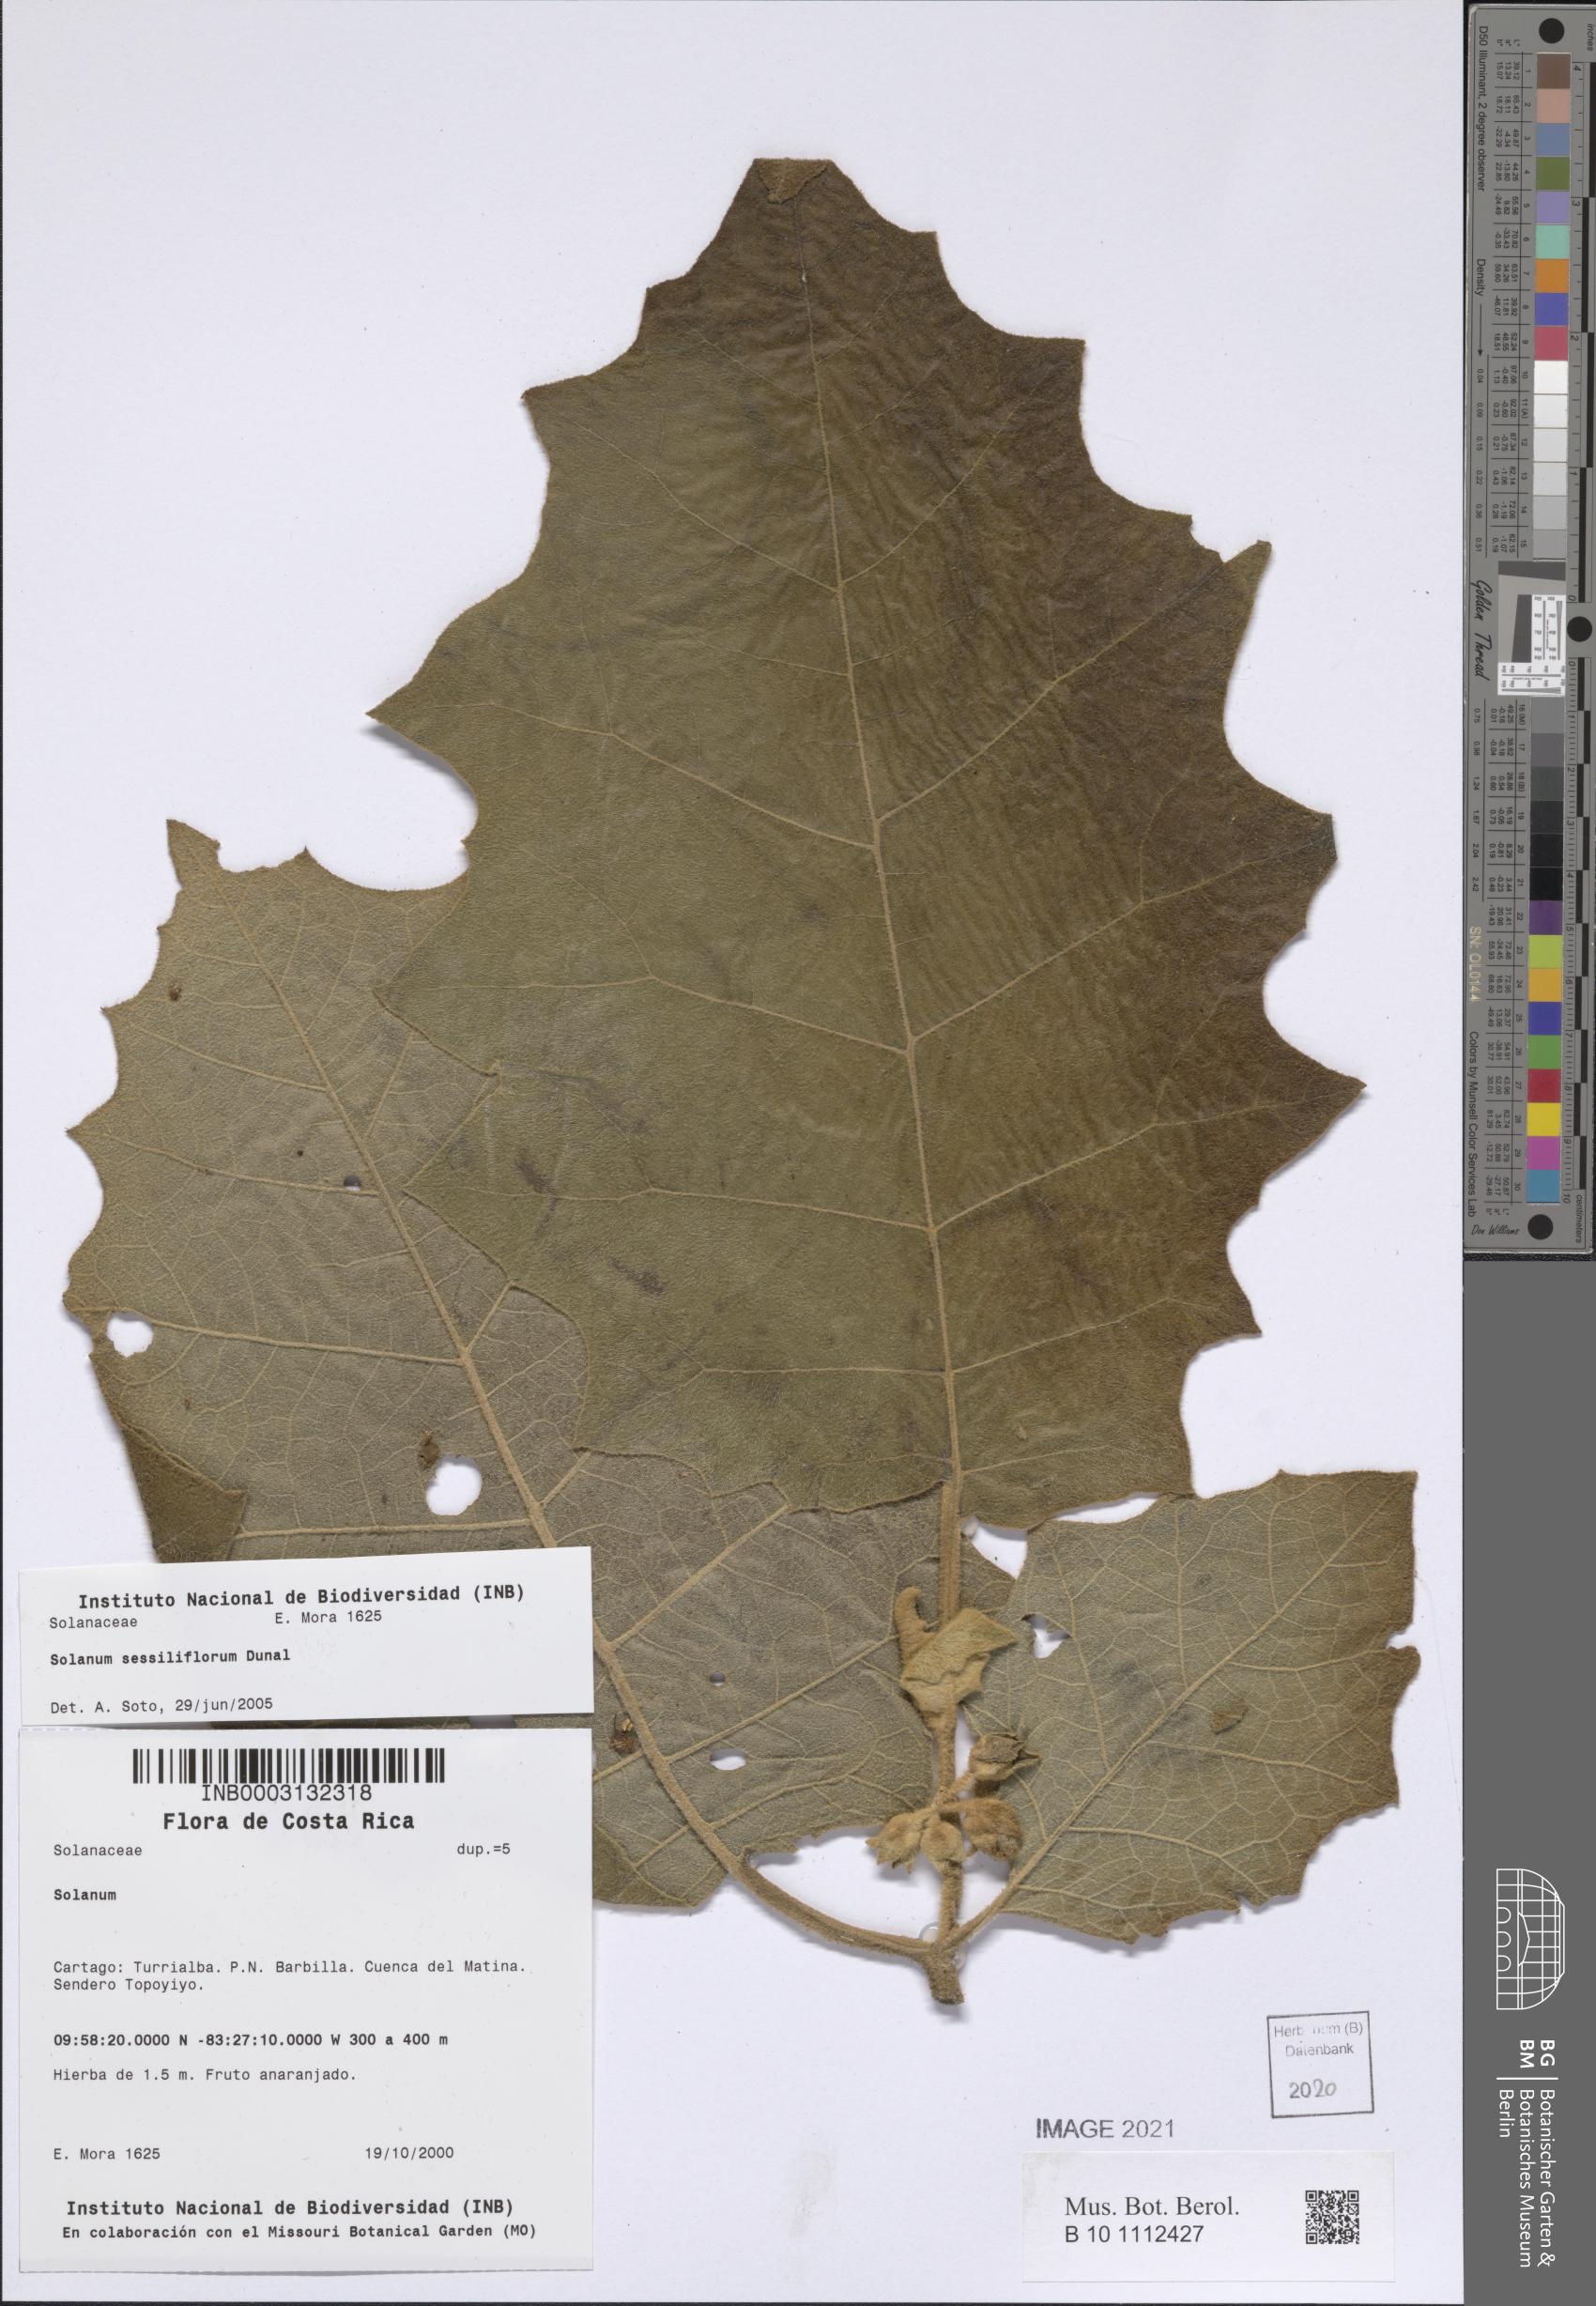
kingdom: Plantae
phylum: Tracheophyta
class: Magnoliopsida
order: Solanales
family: Solanaceae
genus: Solanum
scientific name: Solanum sessiliflorum
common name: Orinoco-apple
